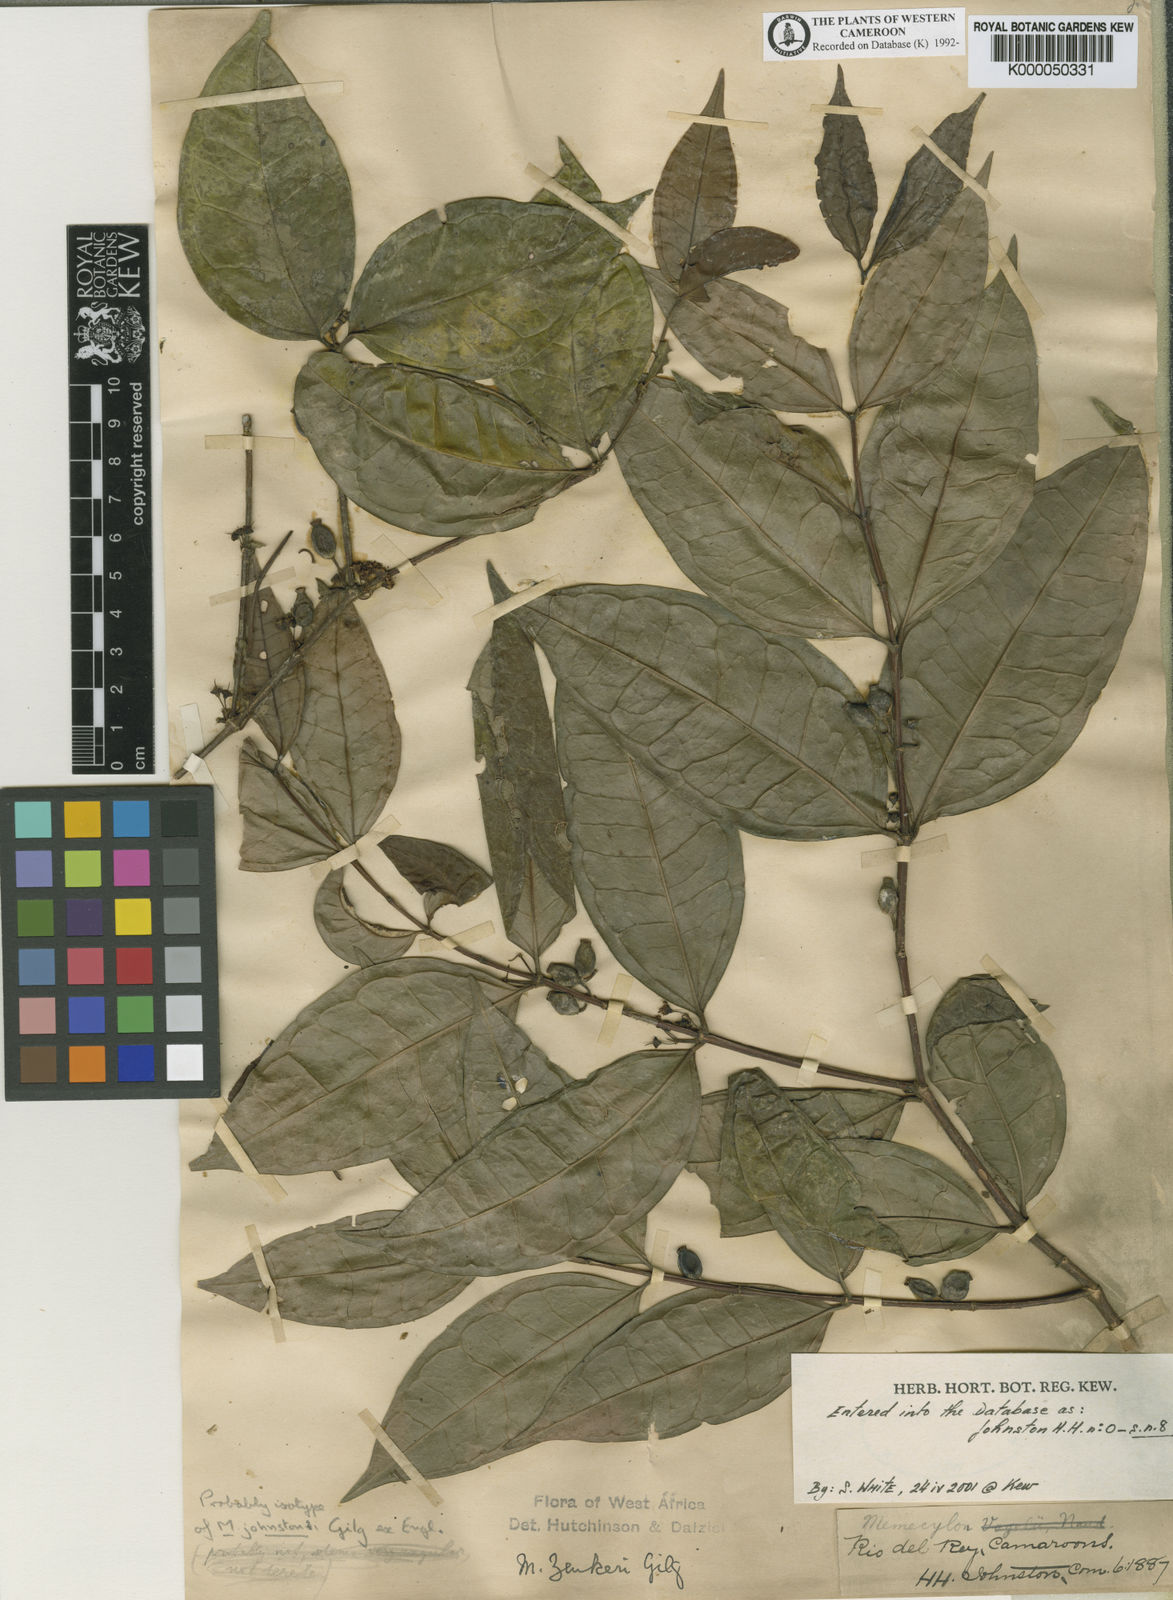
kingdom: Plantae
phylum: Tracheophyta
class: Magnoliopsida
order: Myrtales
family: Melastomataceae
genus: Memecylon
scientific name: Memecylon zenkeri
